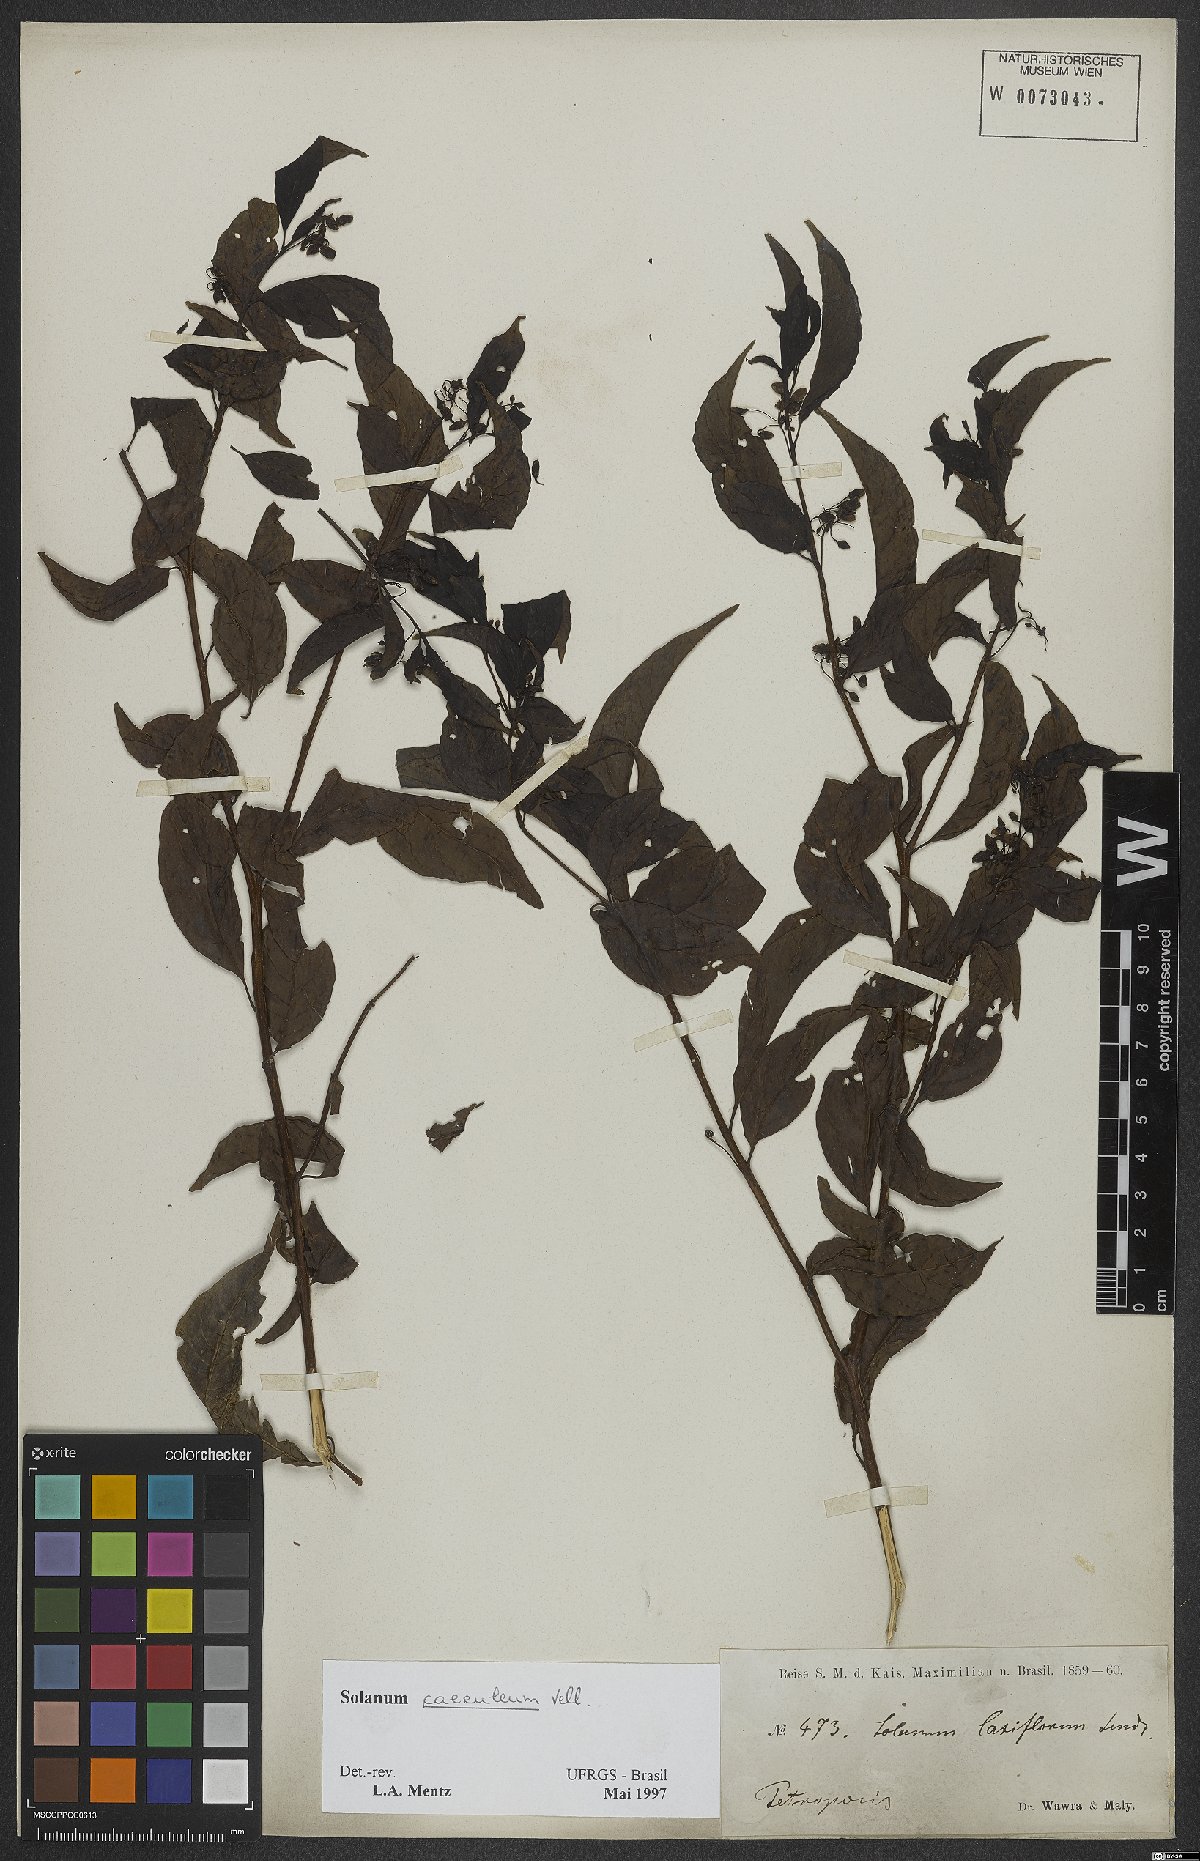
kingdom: Plantae
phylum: Tracheophyta
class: Magnoliopsida
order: Solanales
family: Solanaceae
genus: Solanum
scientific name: Solanum campaniforme
